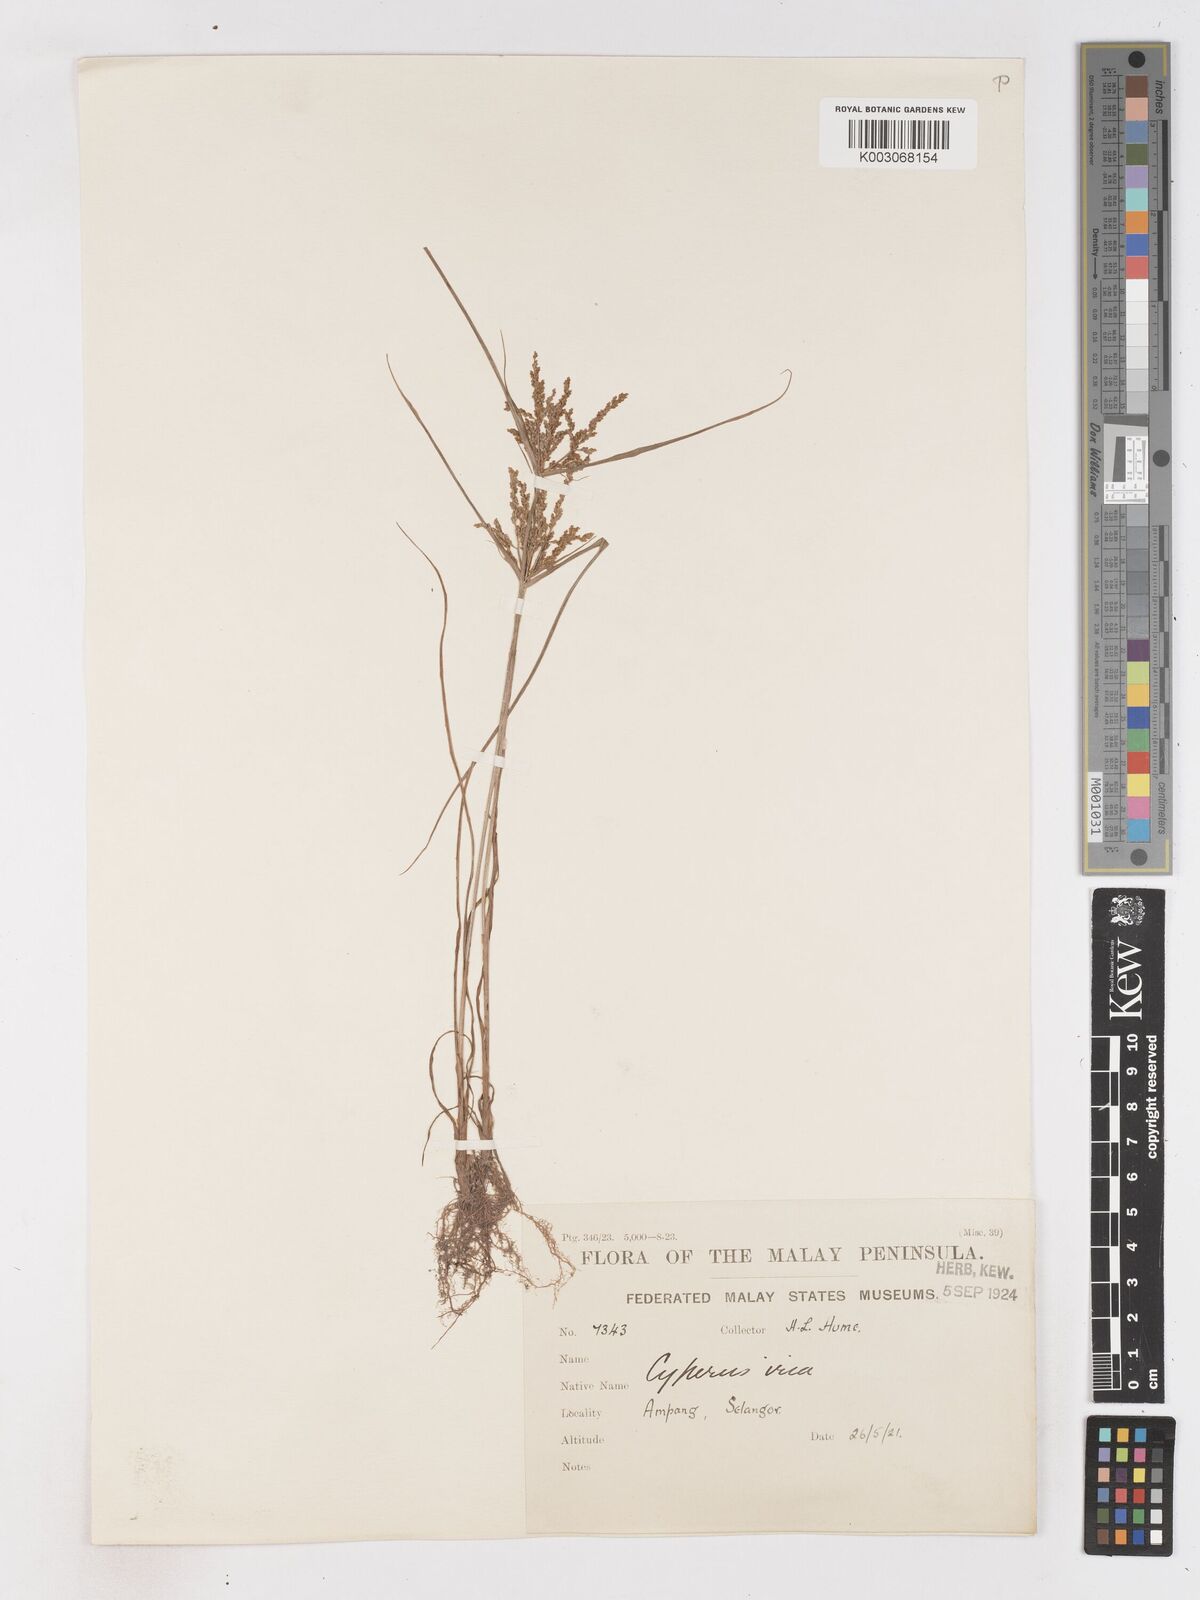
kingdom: Plantae
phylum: Tracheophyta
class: Liliopsida
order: Poales
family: Cyperaceae
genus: Cyperus
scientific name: Cyperus iria
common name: Ricefield flatsedge
